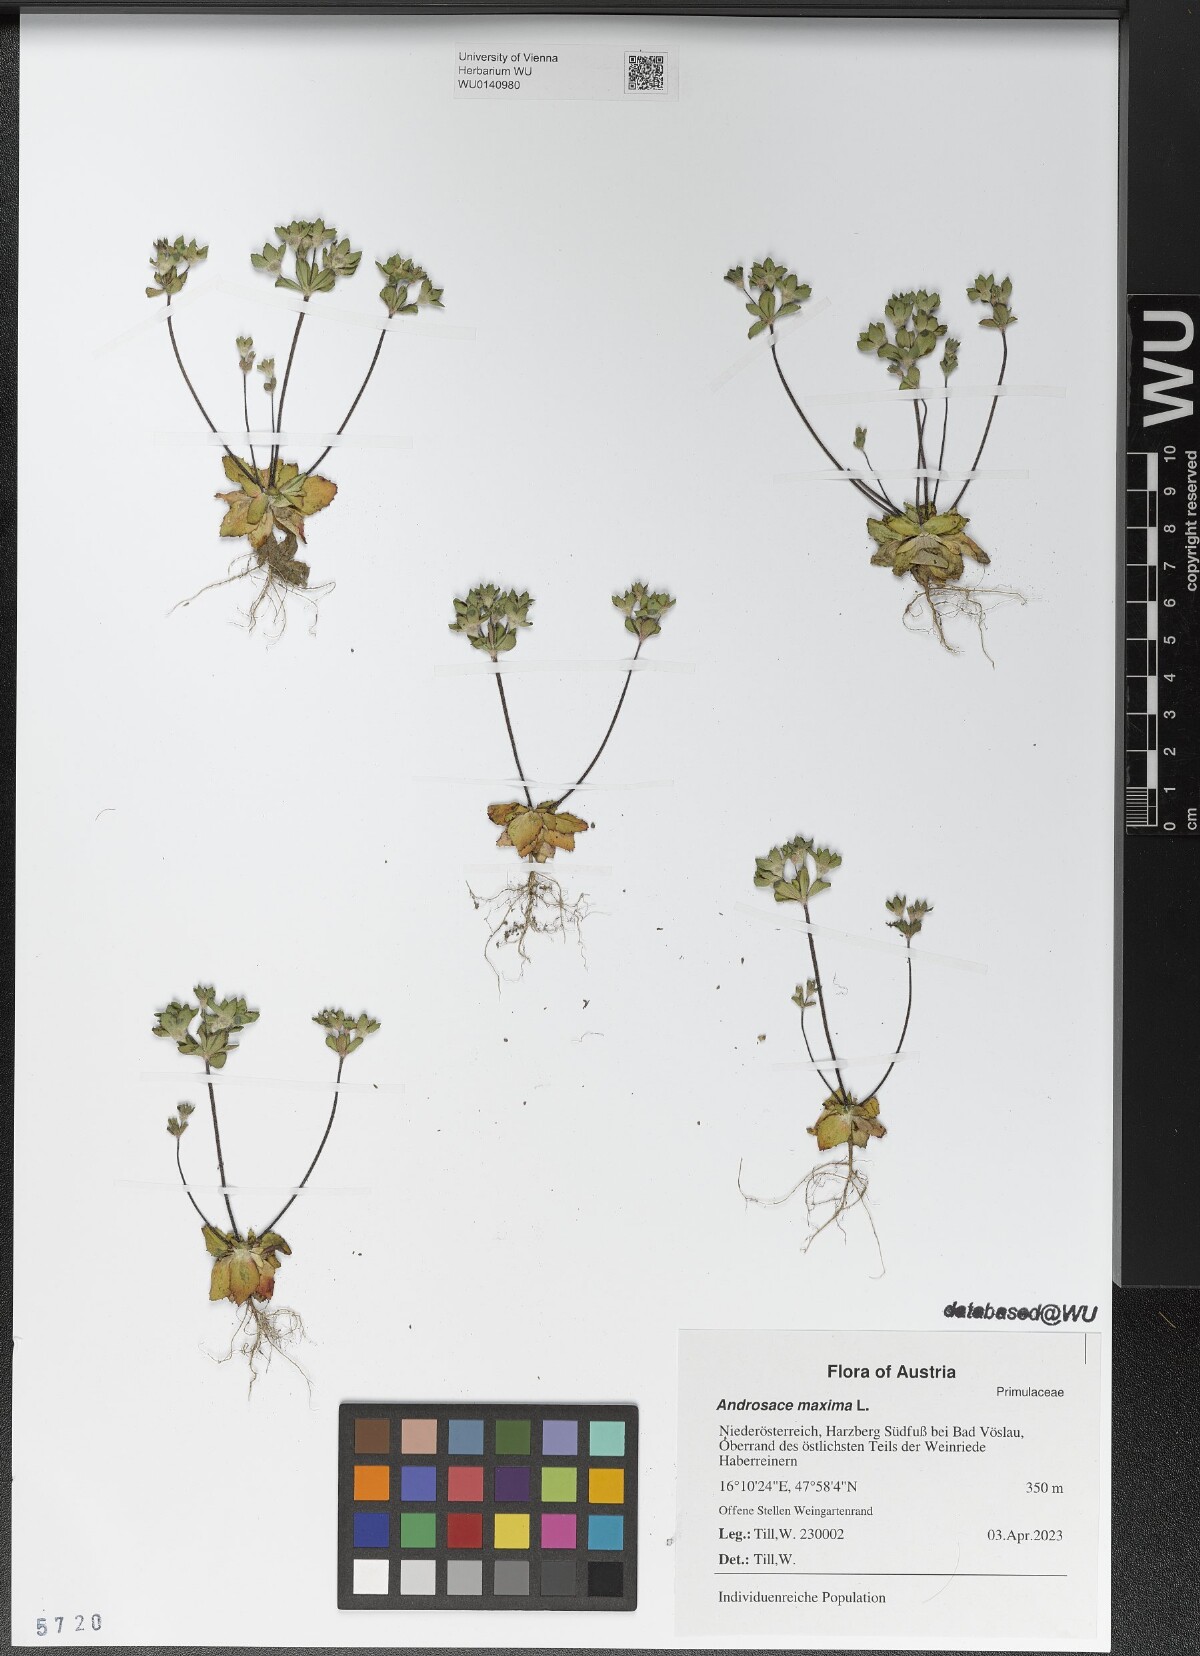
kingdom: Plantae
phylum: Tracheophyta
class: Magnoliopsida
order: Ericales
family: Primulaceae
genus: Androsace
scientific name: Androsace maxima
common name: Annual androsace
